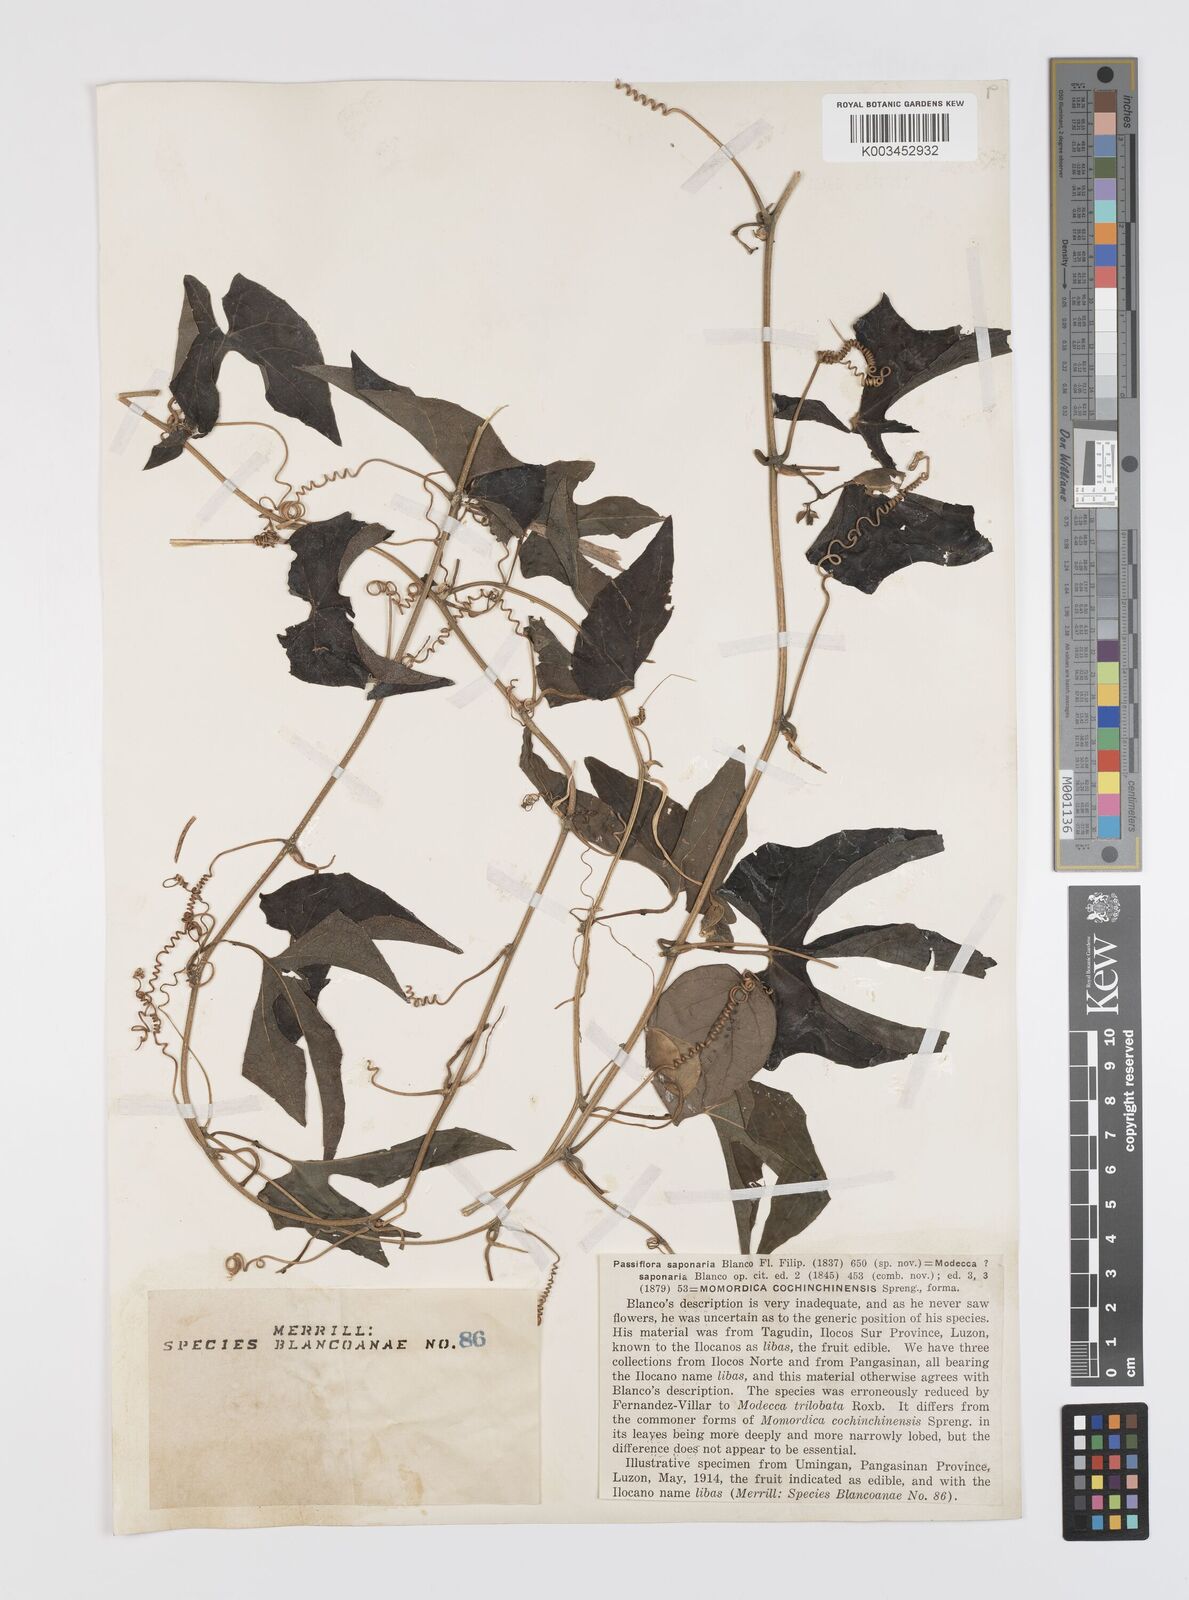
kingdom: Plantae
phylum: Tracheophyta
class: Magnoliopsida
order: Cucurbitales
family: Cucurbitaceae
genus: Momordica
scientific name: Momordica cochinchinensis
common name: Chinese bitter-cucumber
